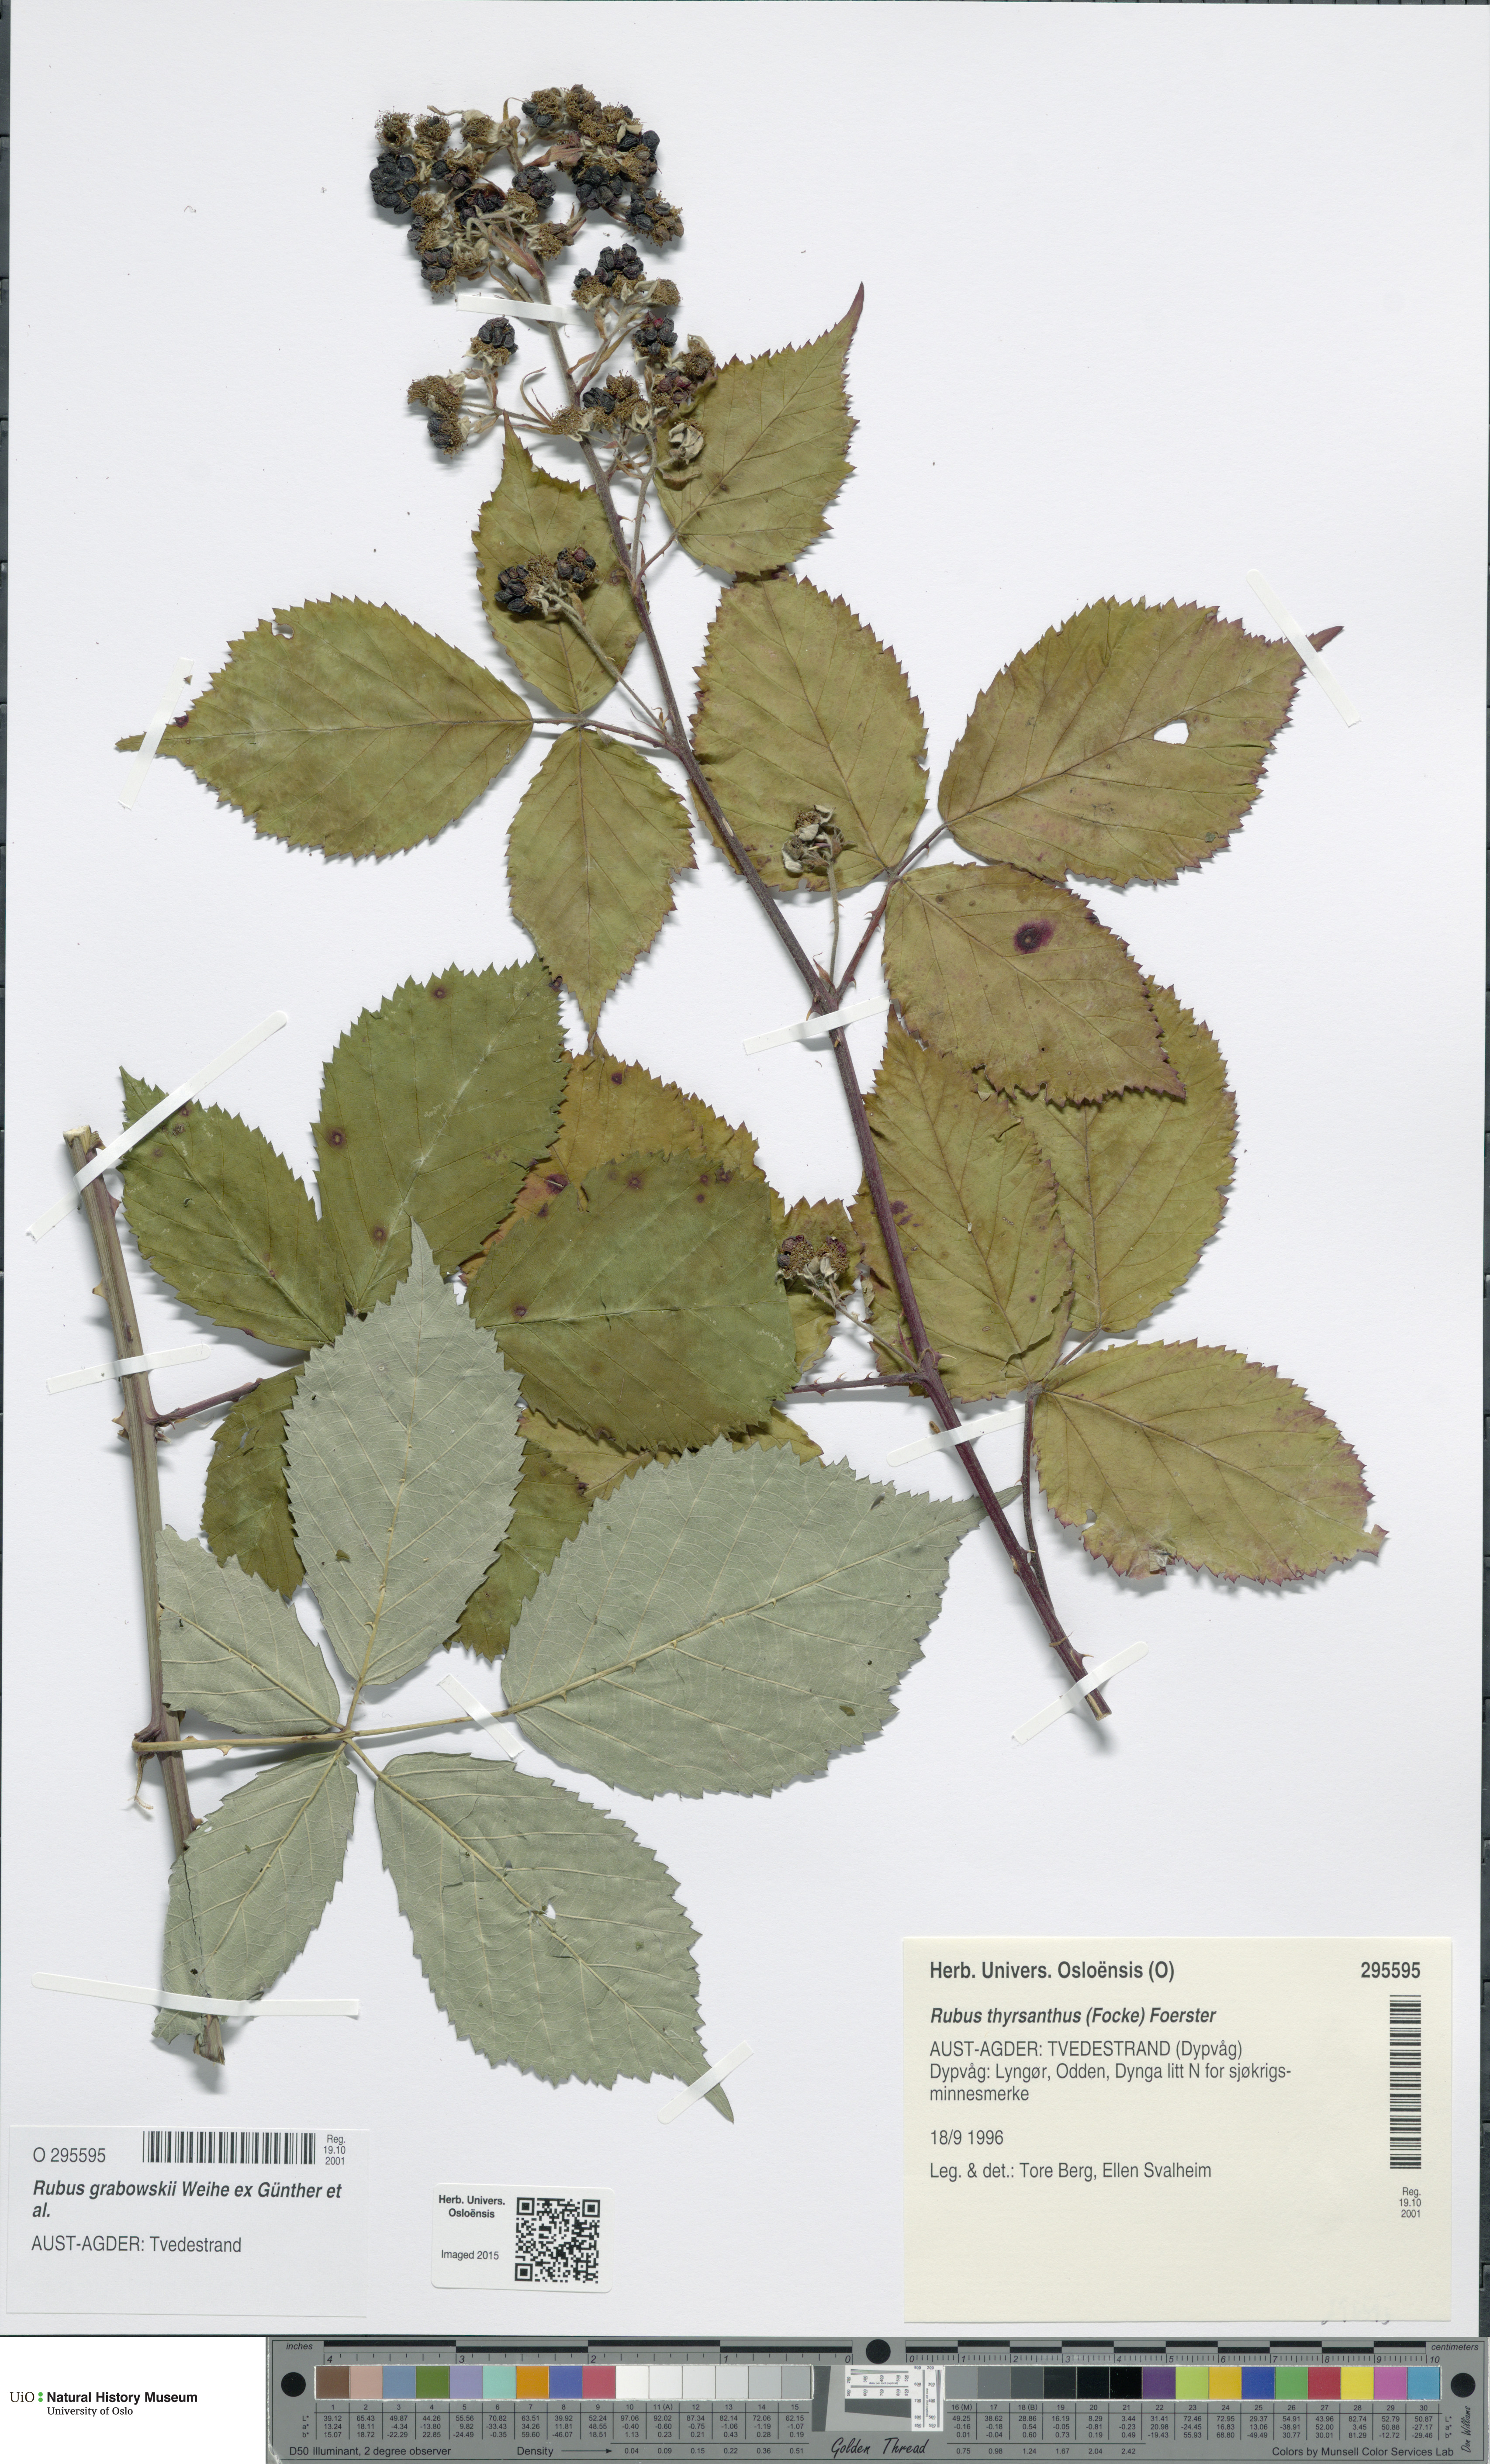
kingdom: Plantae
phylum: Tracheophyta
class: Magnoliopsida
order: Rosales
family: Rosaceae
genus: Rubus
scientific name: Rubus grabowskii
